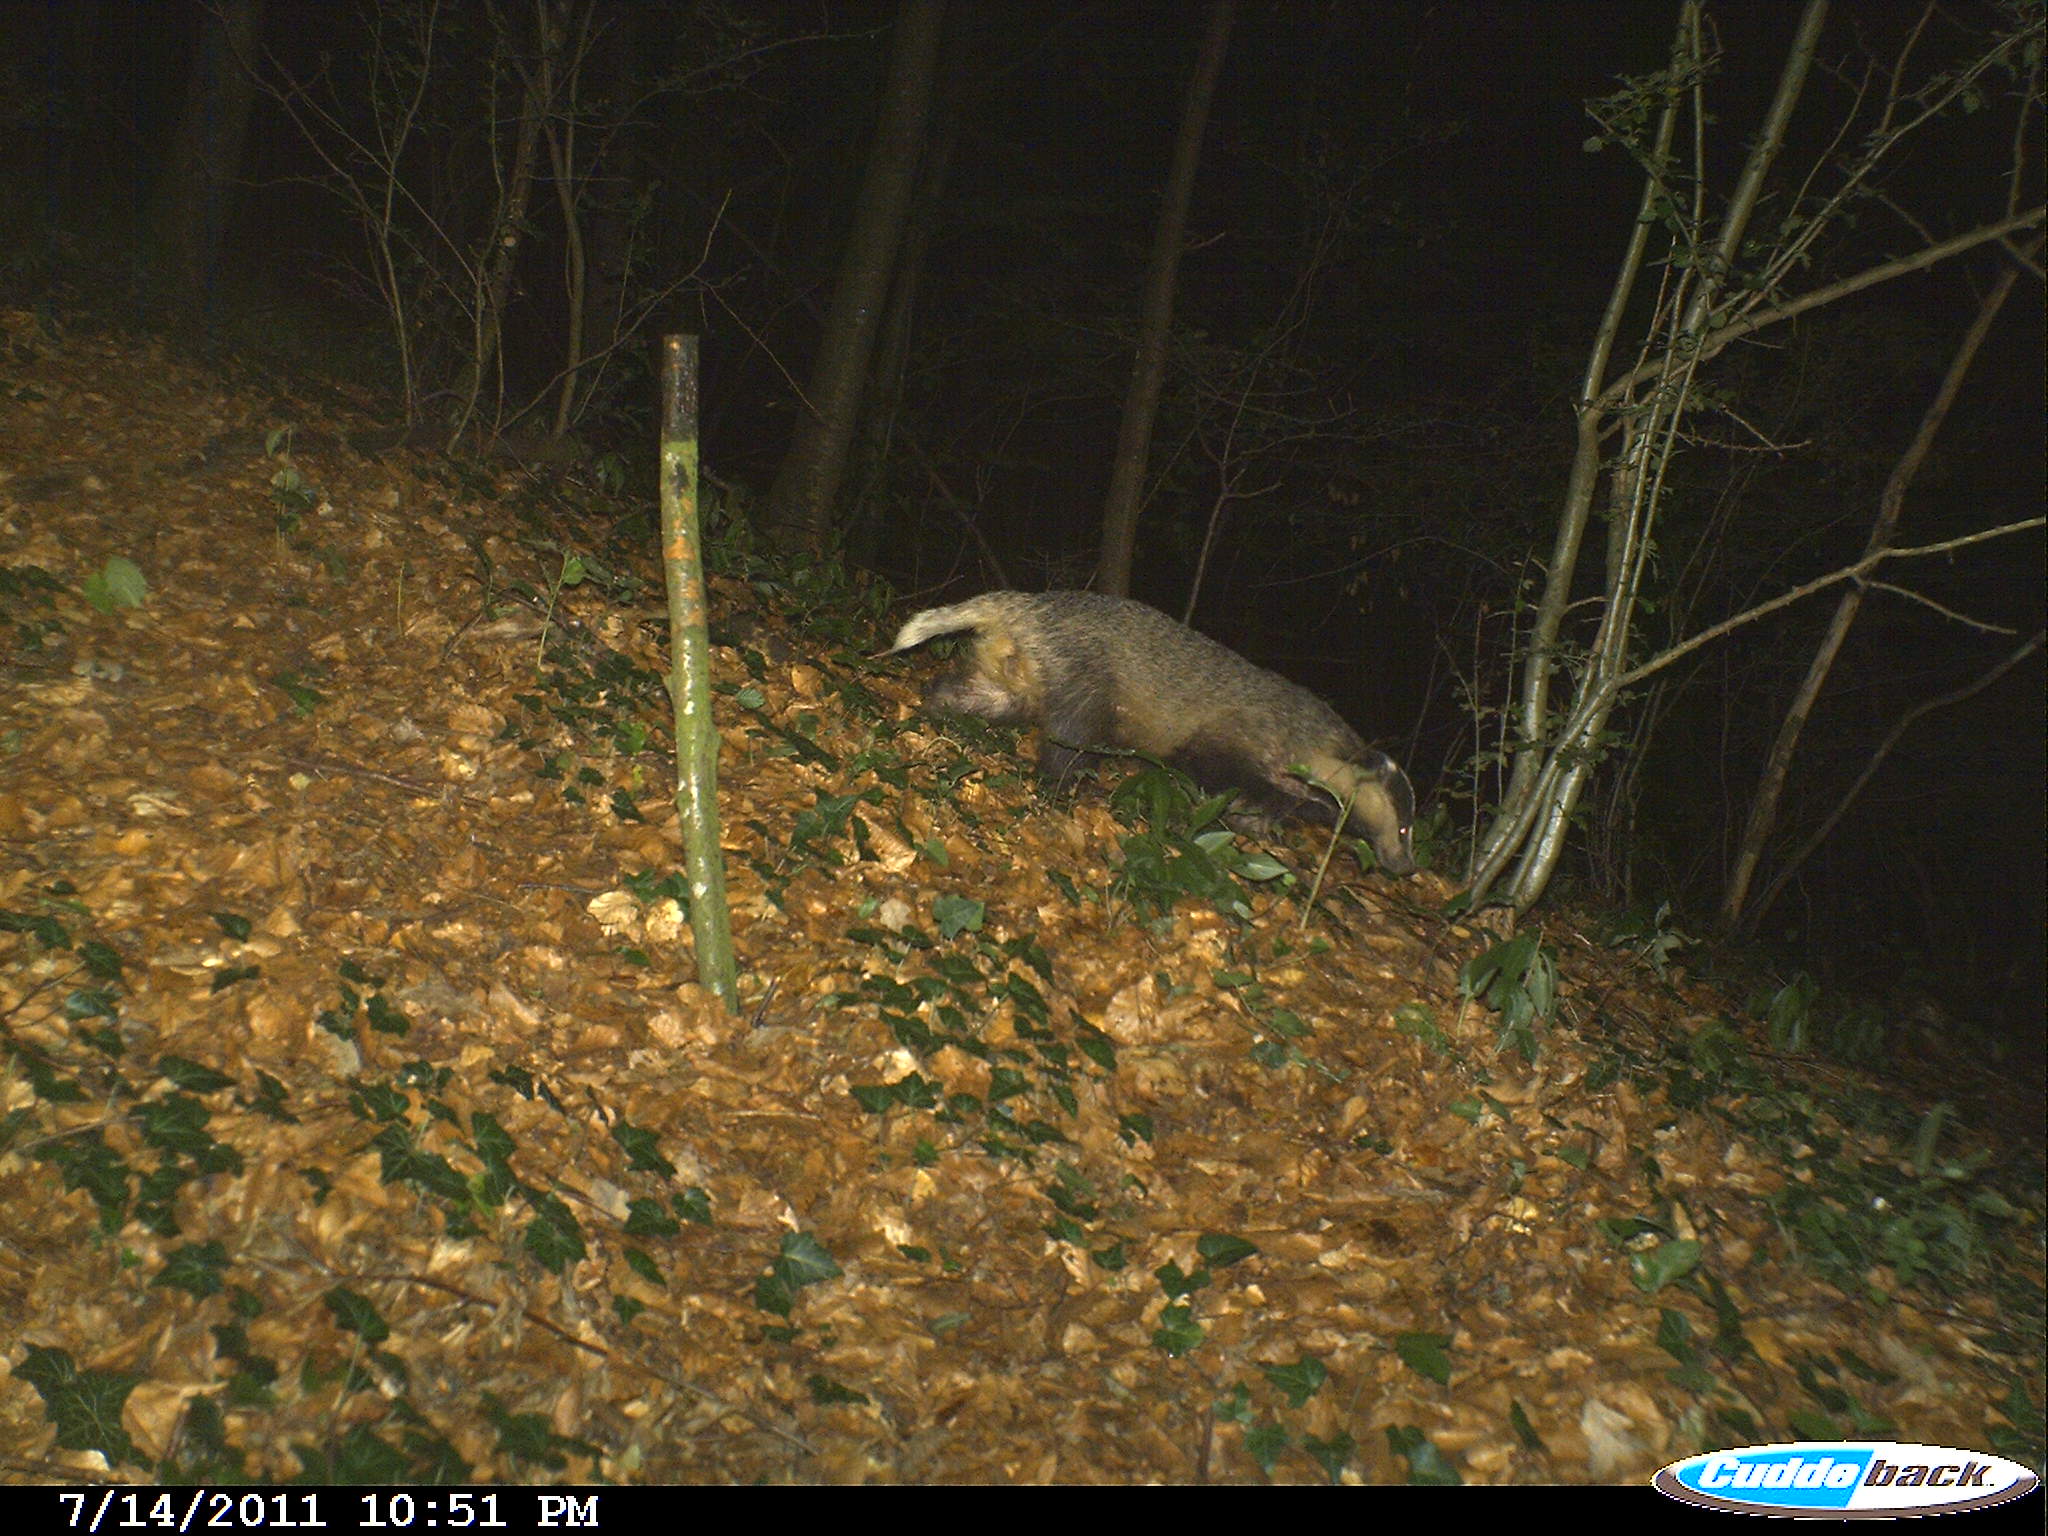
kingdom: Animalia
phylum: Chordata
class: Mammalia
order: Carnivora
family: Mustelidae
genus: Meles
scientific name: Meles meles
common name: Eurasian badger
